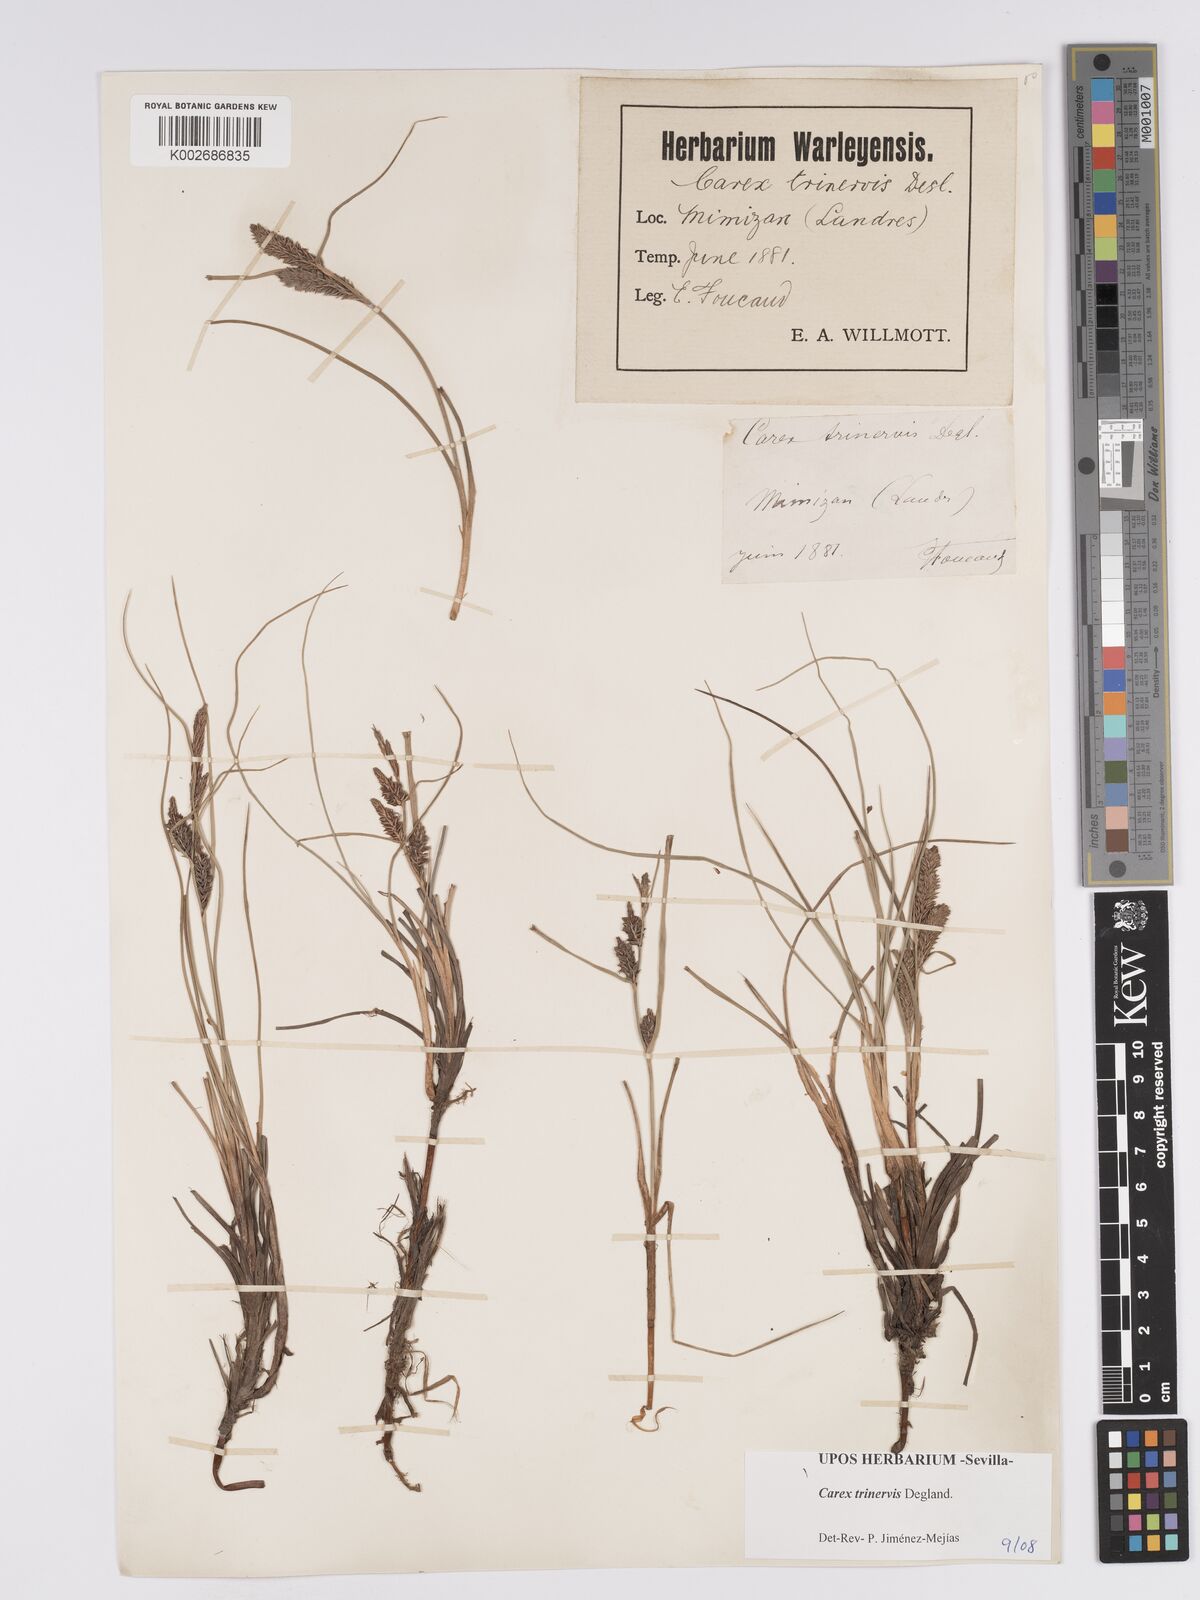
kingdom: Plantae
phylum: Tracheophyta
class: Liliopsida
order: Poales
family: Cyperaceae
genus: Carex
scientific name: Carex trinervis
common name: Three-nerved sedge
